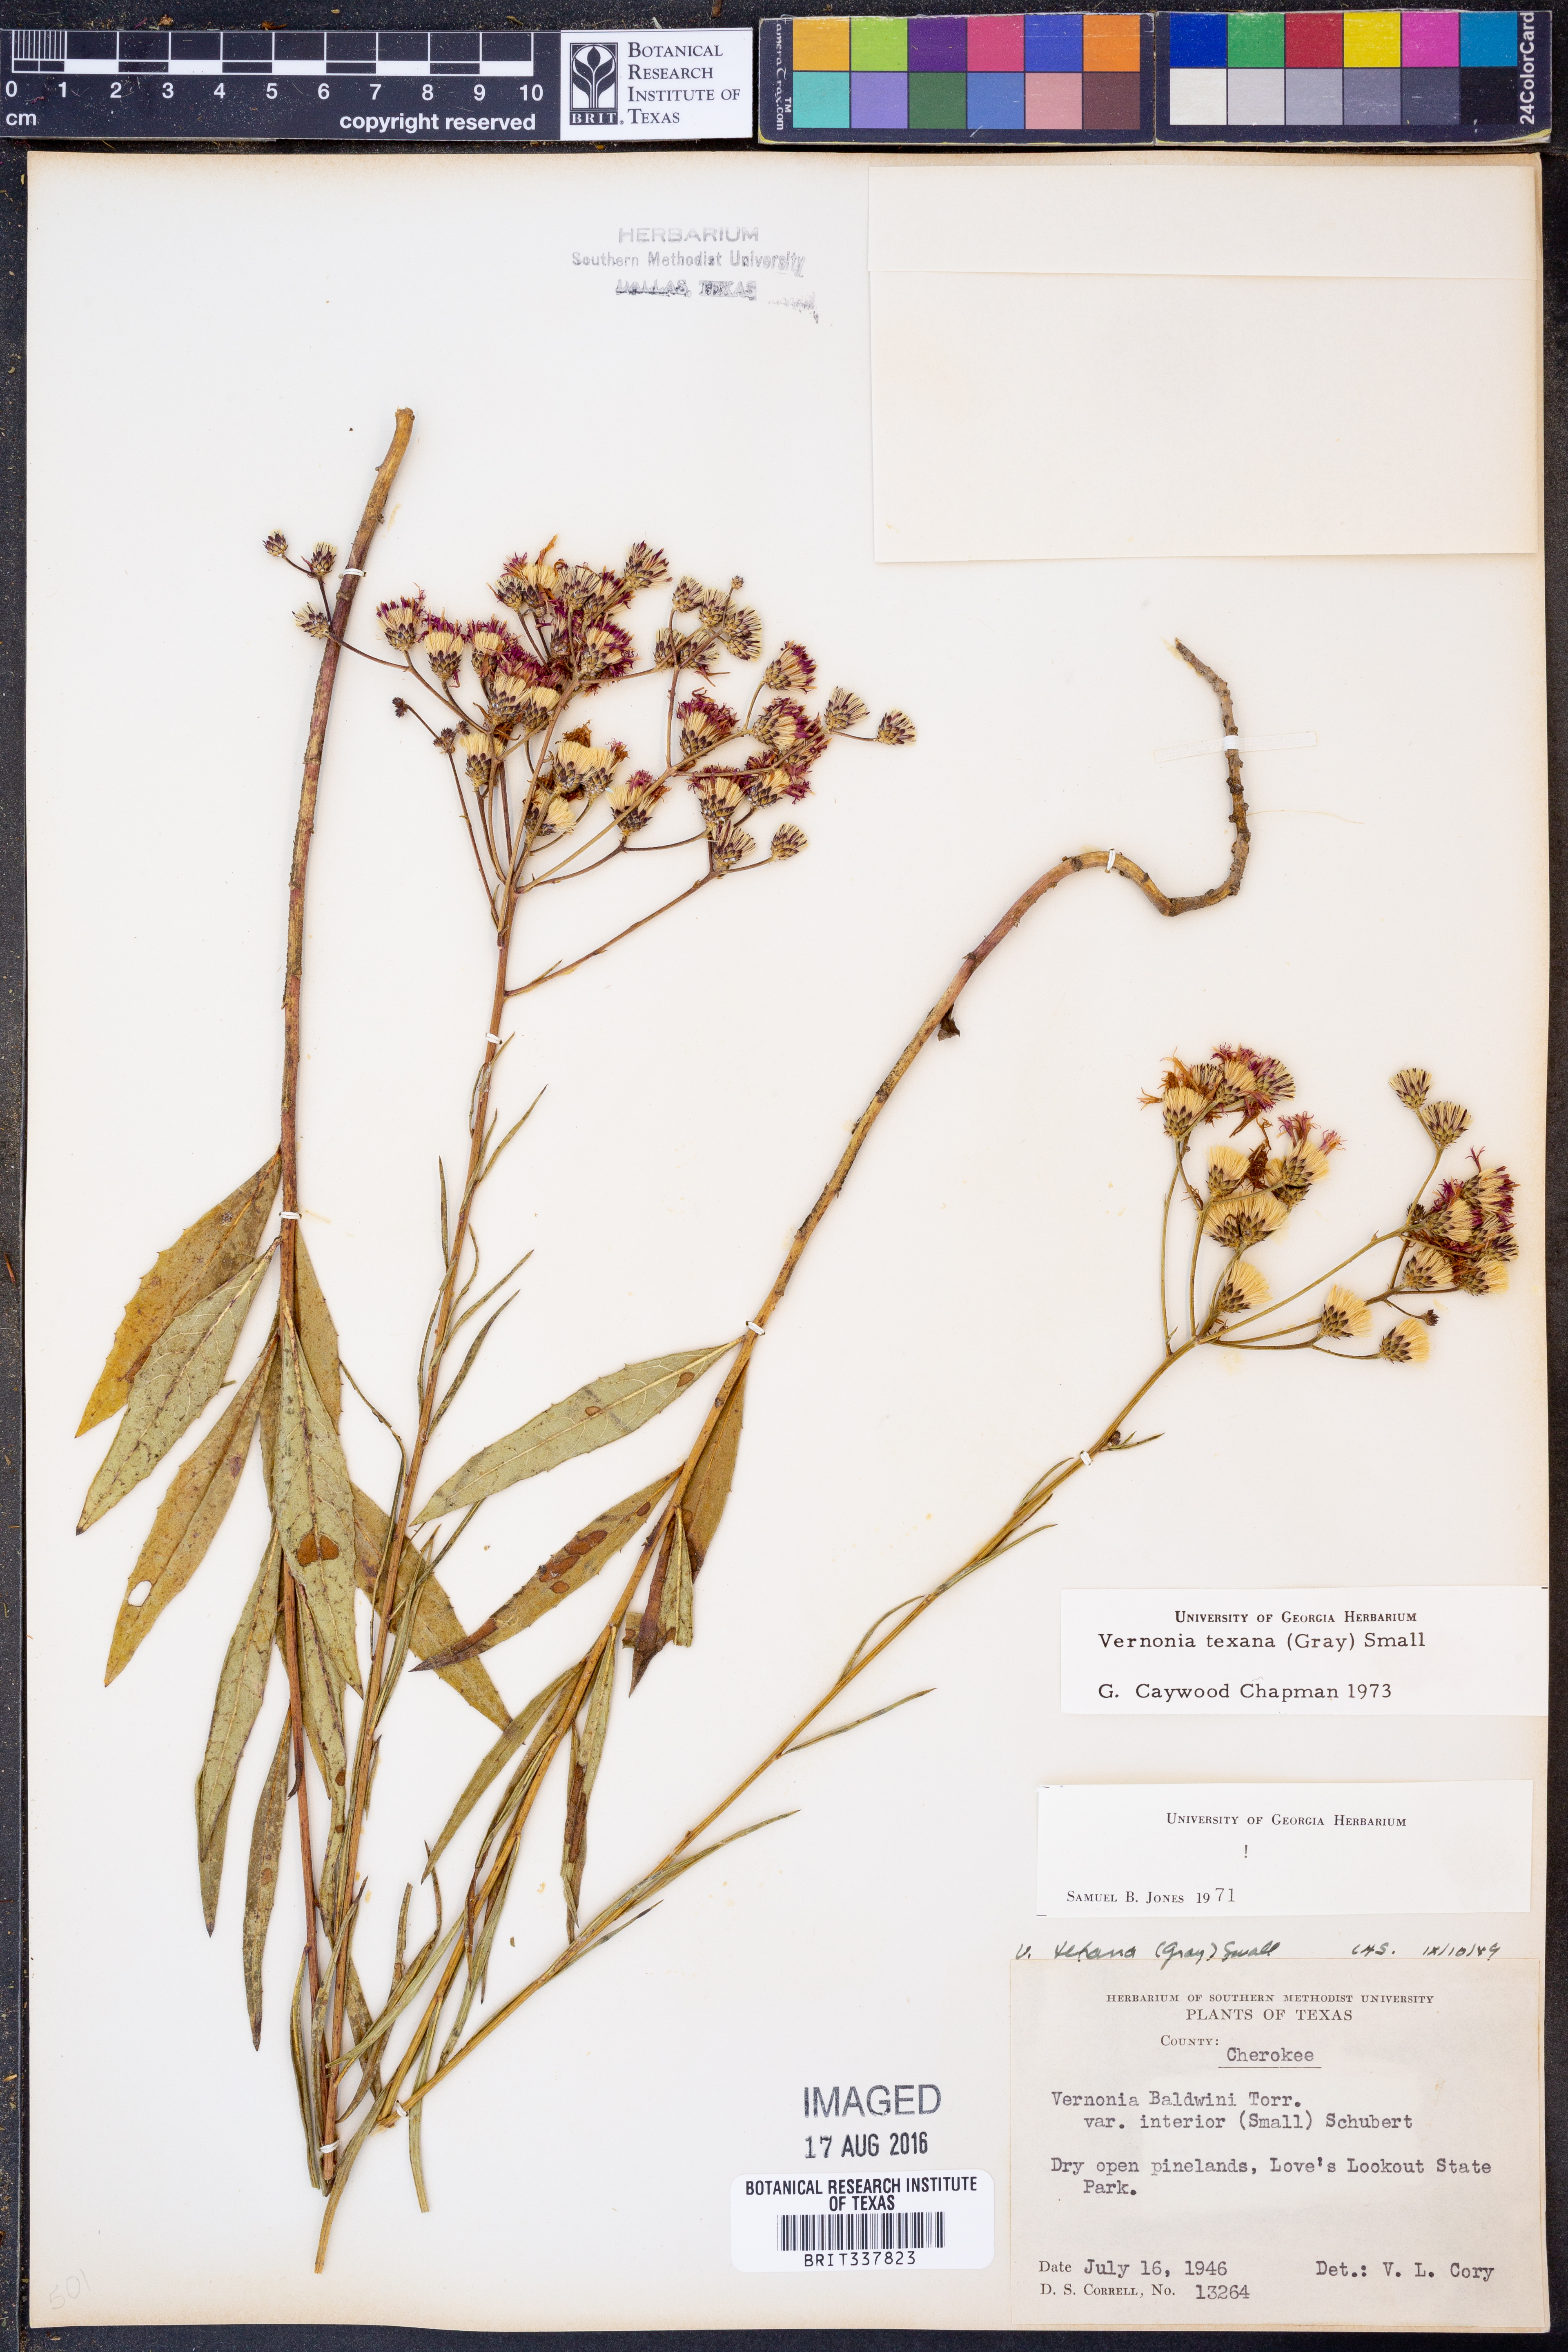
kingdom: Plantae
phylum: Tracheophyta
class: Magnoliopsida
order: Asterales
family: Asteraceae
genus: Vernonia
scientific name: Vernonia texana
